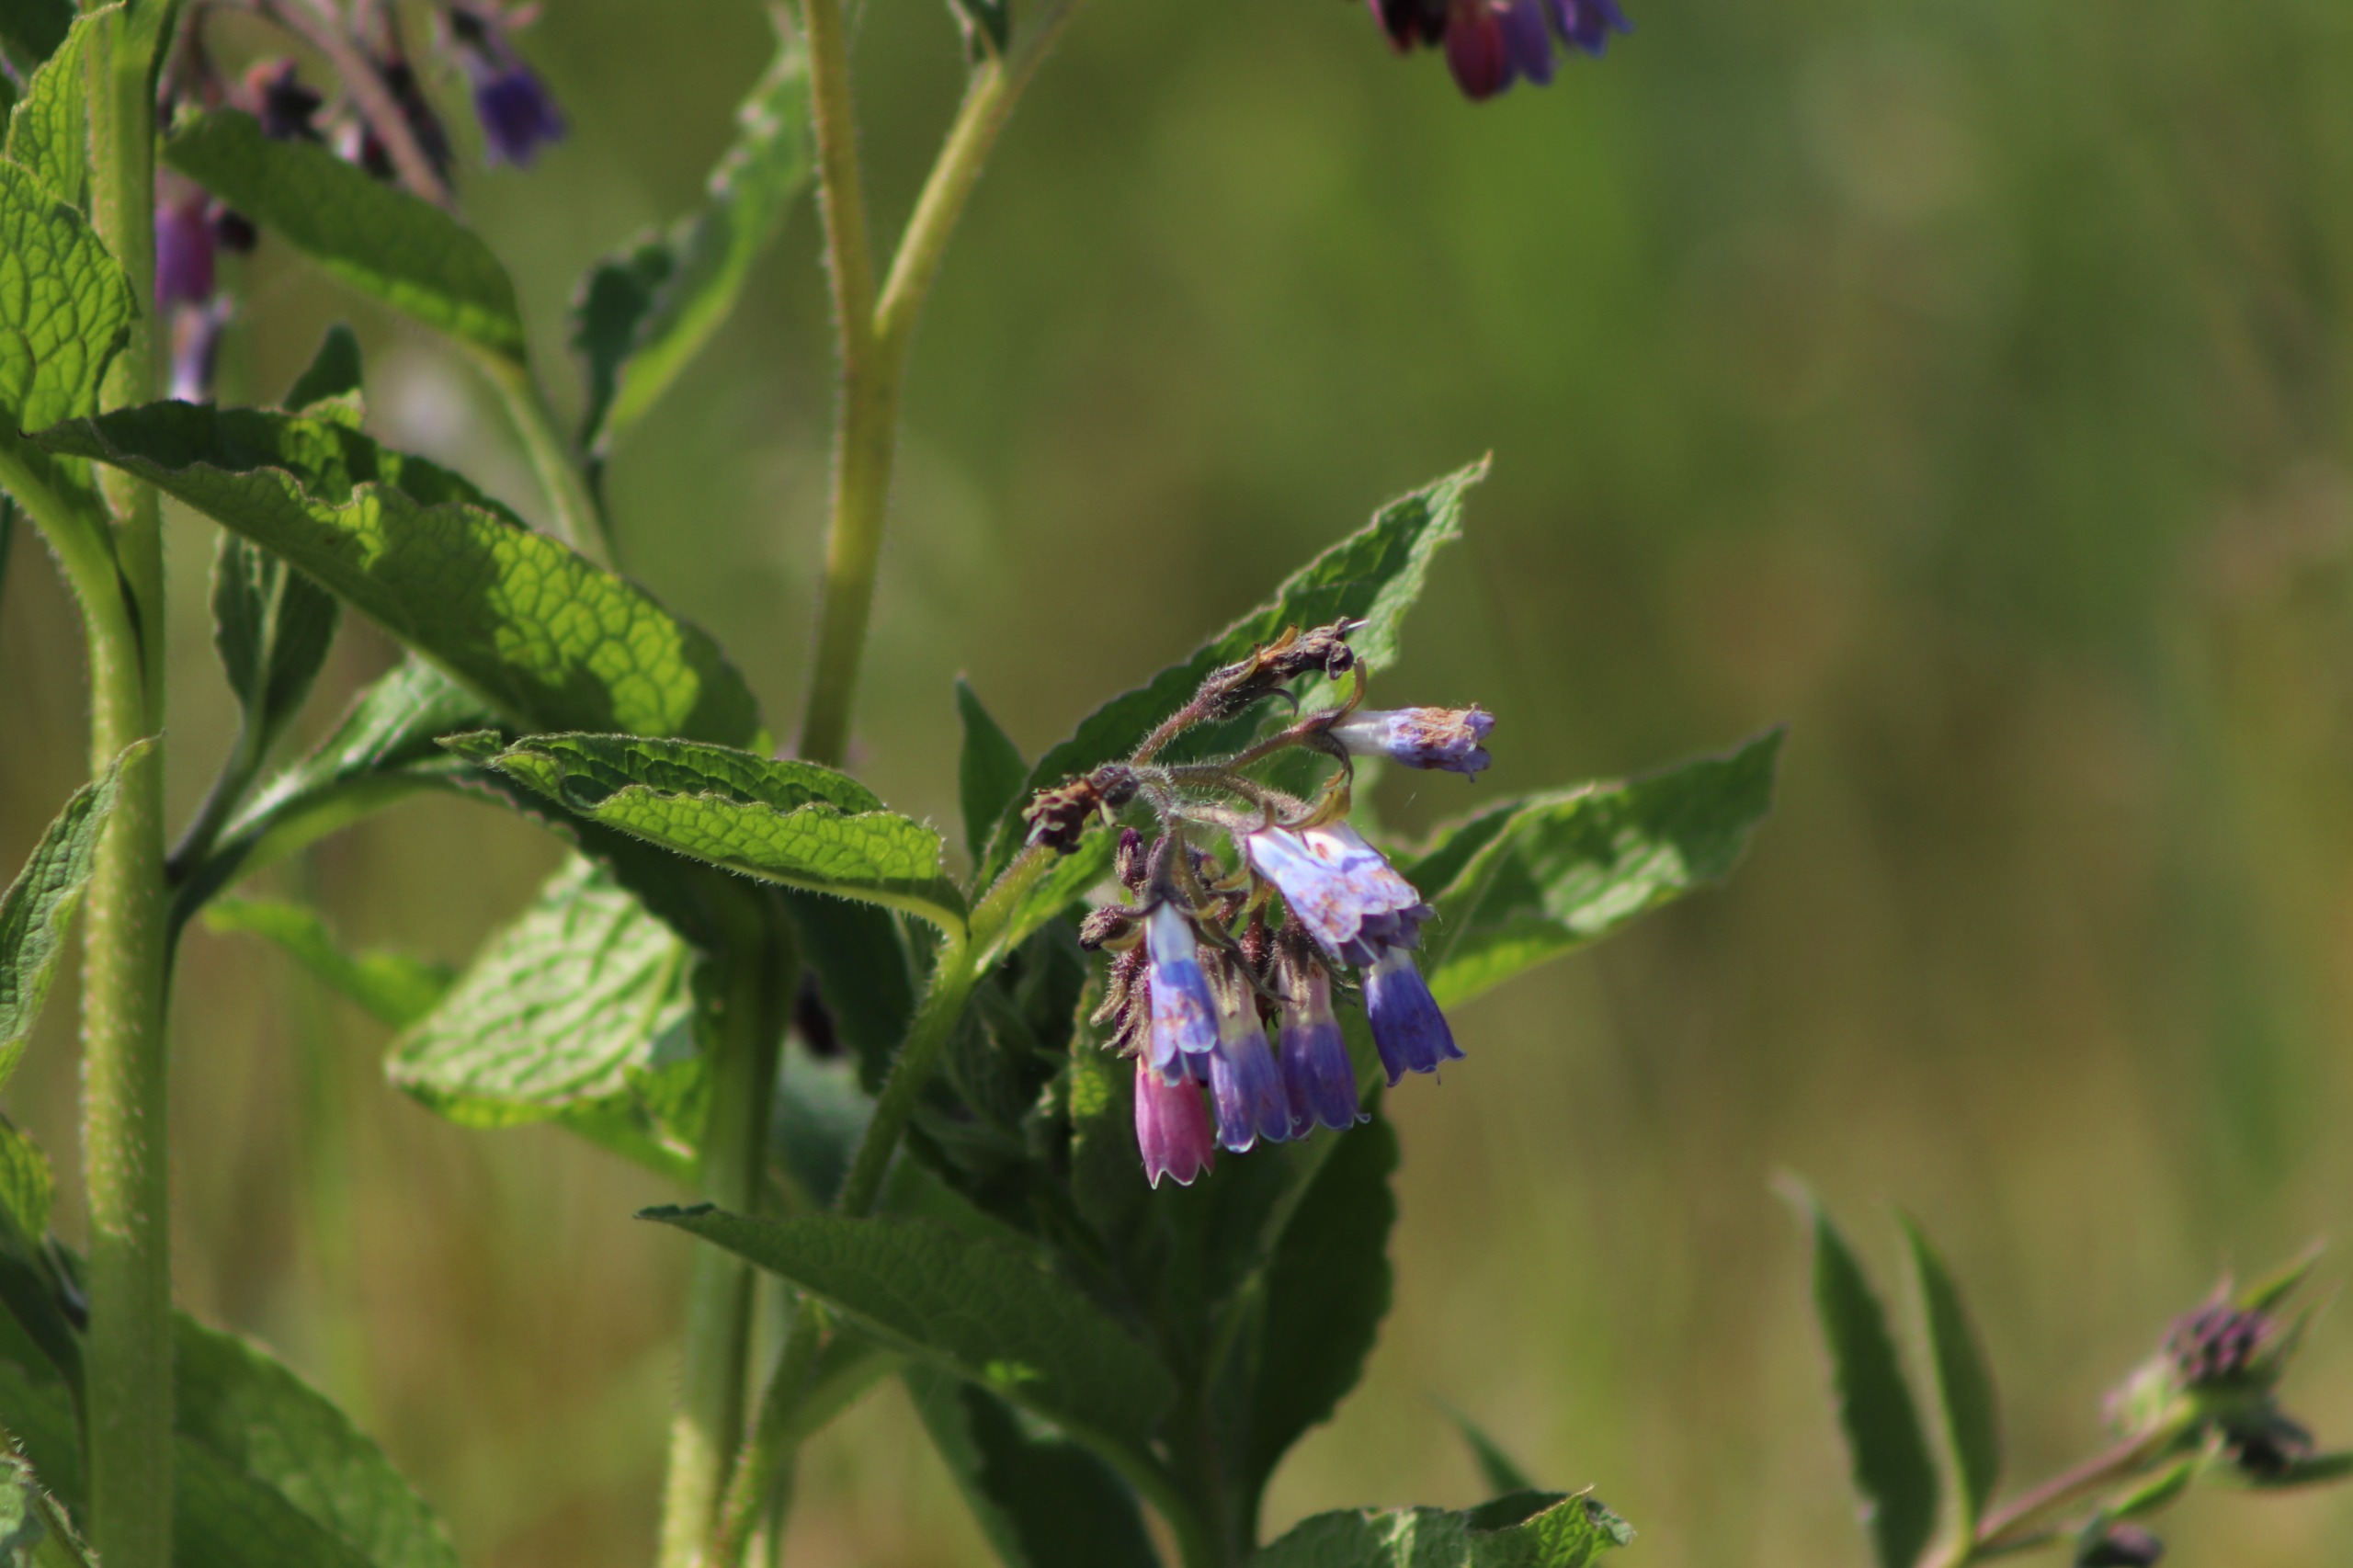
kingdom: Plantae
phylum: Tracheophyta
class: Magnoliopsida
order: Boraginales
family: Boraginaceae
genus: Symphytum
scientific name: Symphytum uplandicum
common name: Foder-kulsukker
